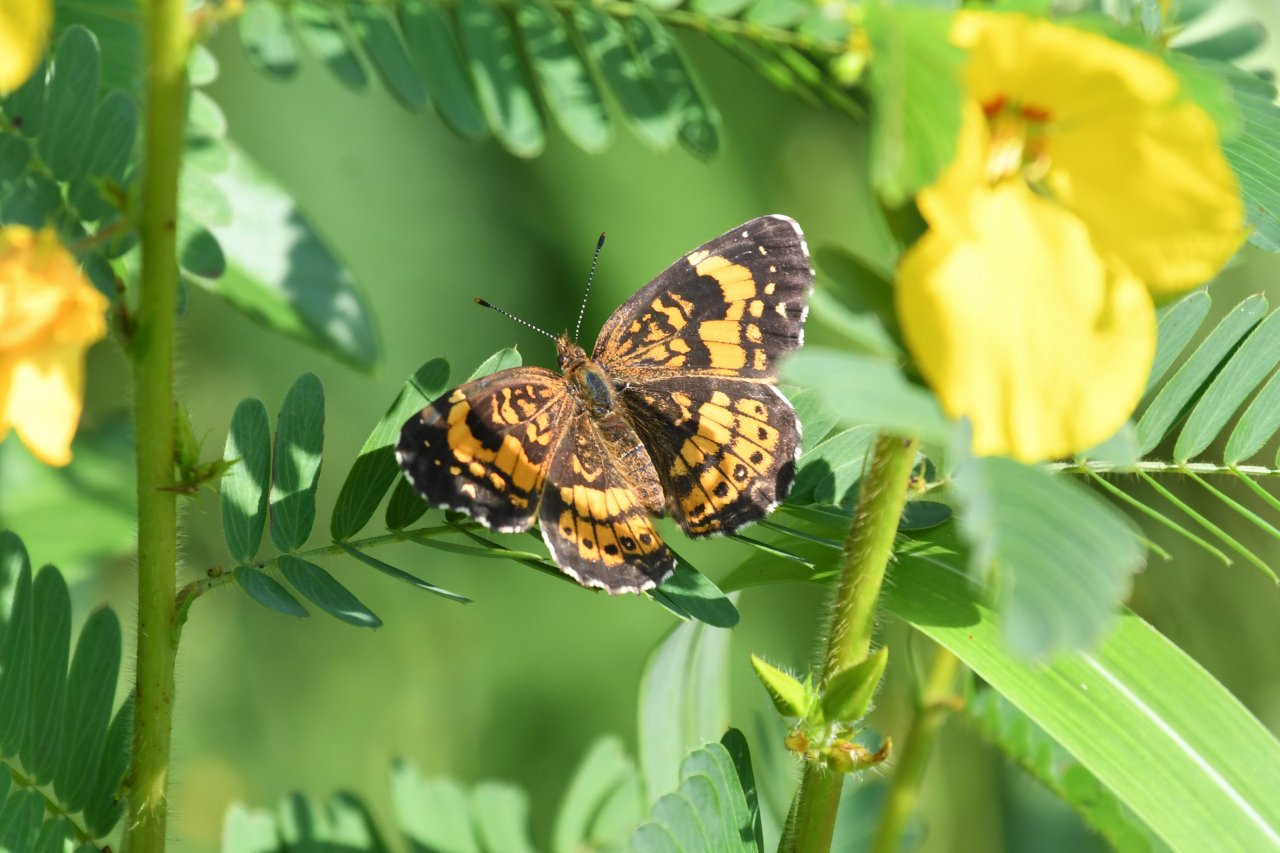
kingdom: Animalia
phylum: Arthropoda
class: Insecta
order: Lepidoptera
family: Nymphalidae
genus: Chlosyne
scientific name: Chlosyne nycteis
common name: Silvery Checkerspot
